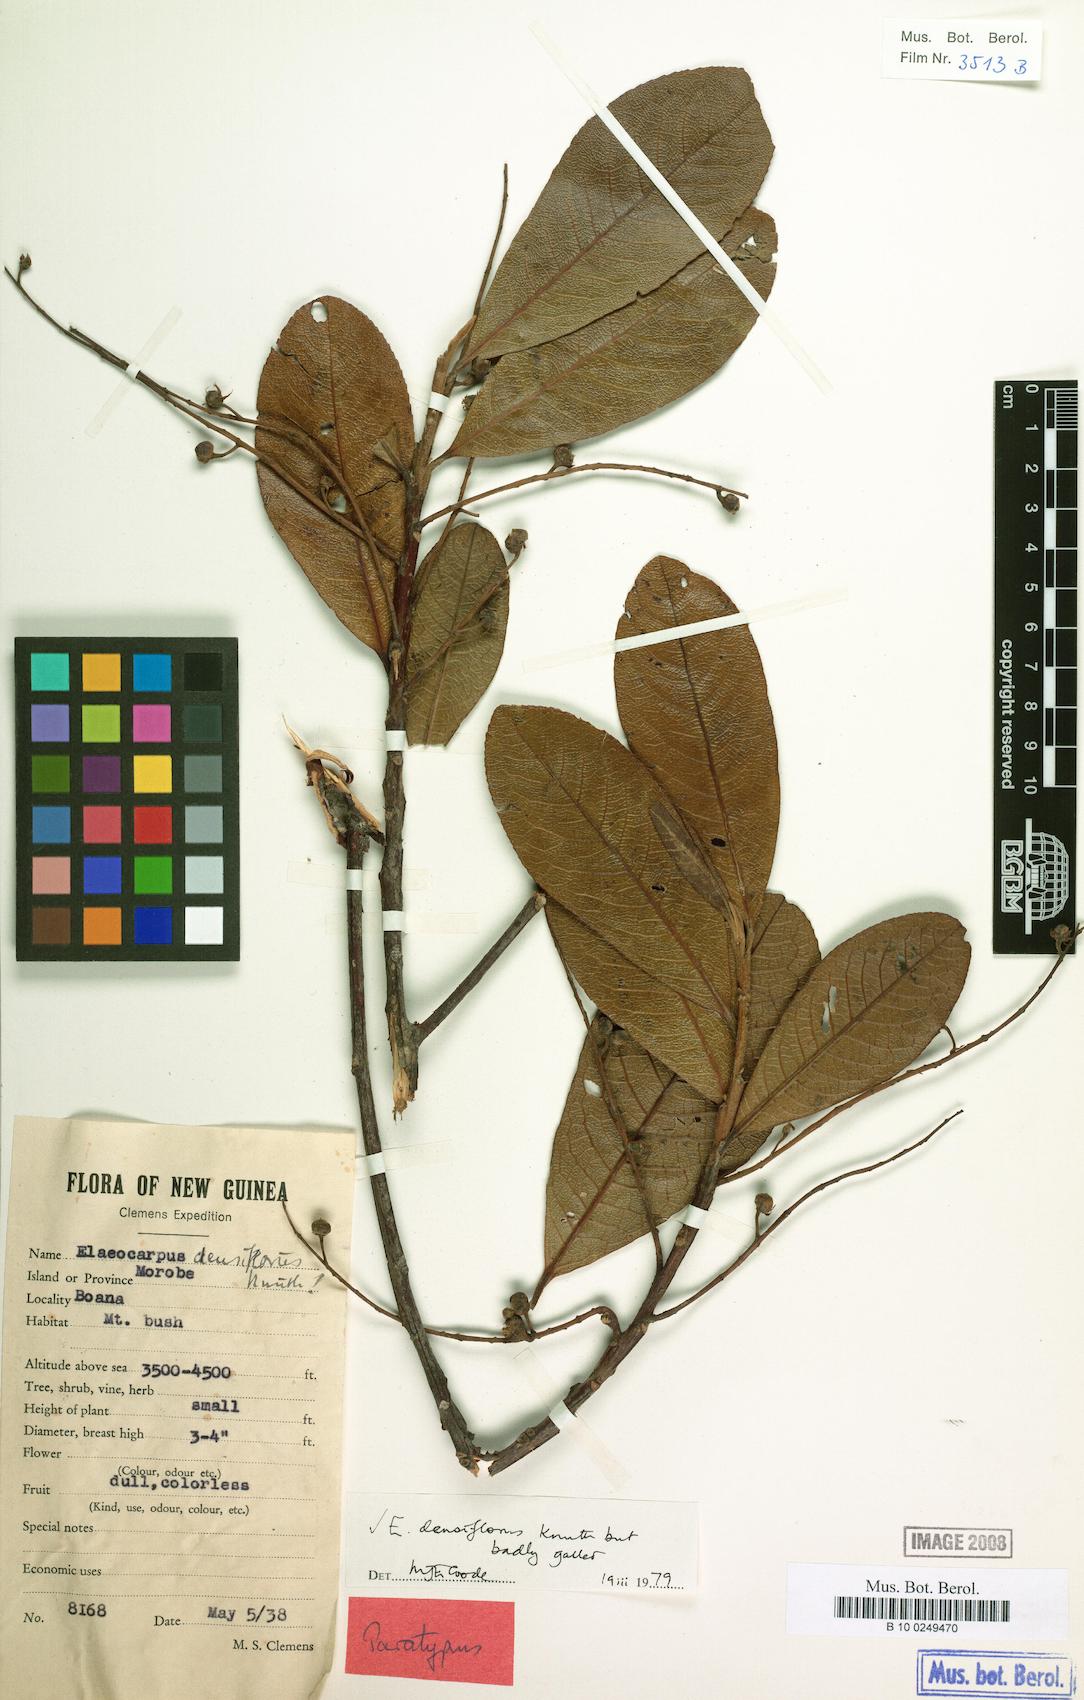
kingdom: Plantae
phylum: Tracheophyta
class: Magnoliopsida
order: Oxalidales
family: Elaeocarpaceae
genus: Elaeocarpus
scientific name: Elaeocarpus densiflorus
